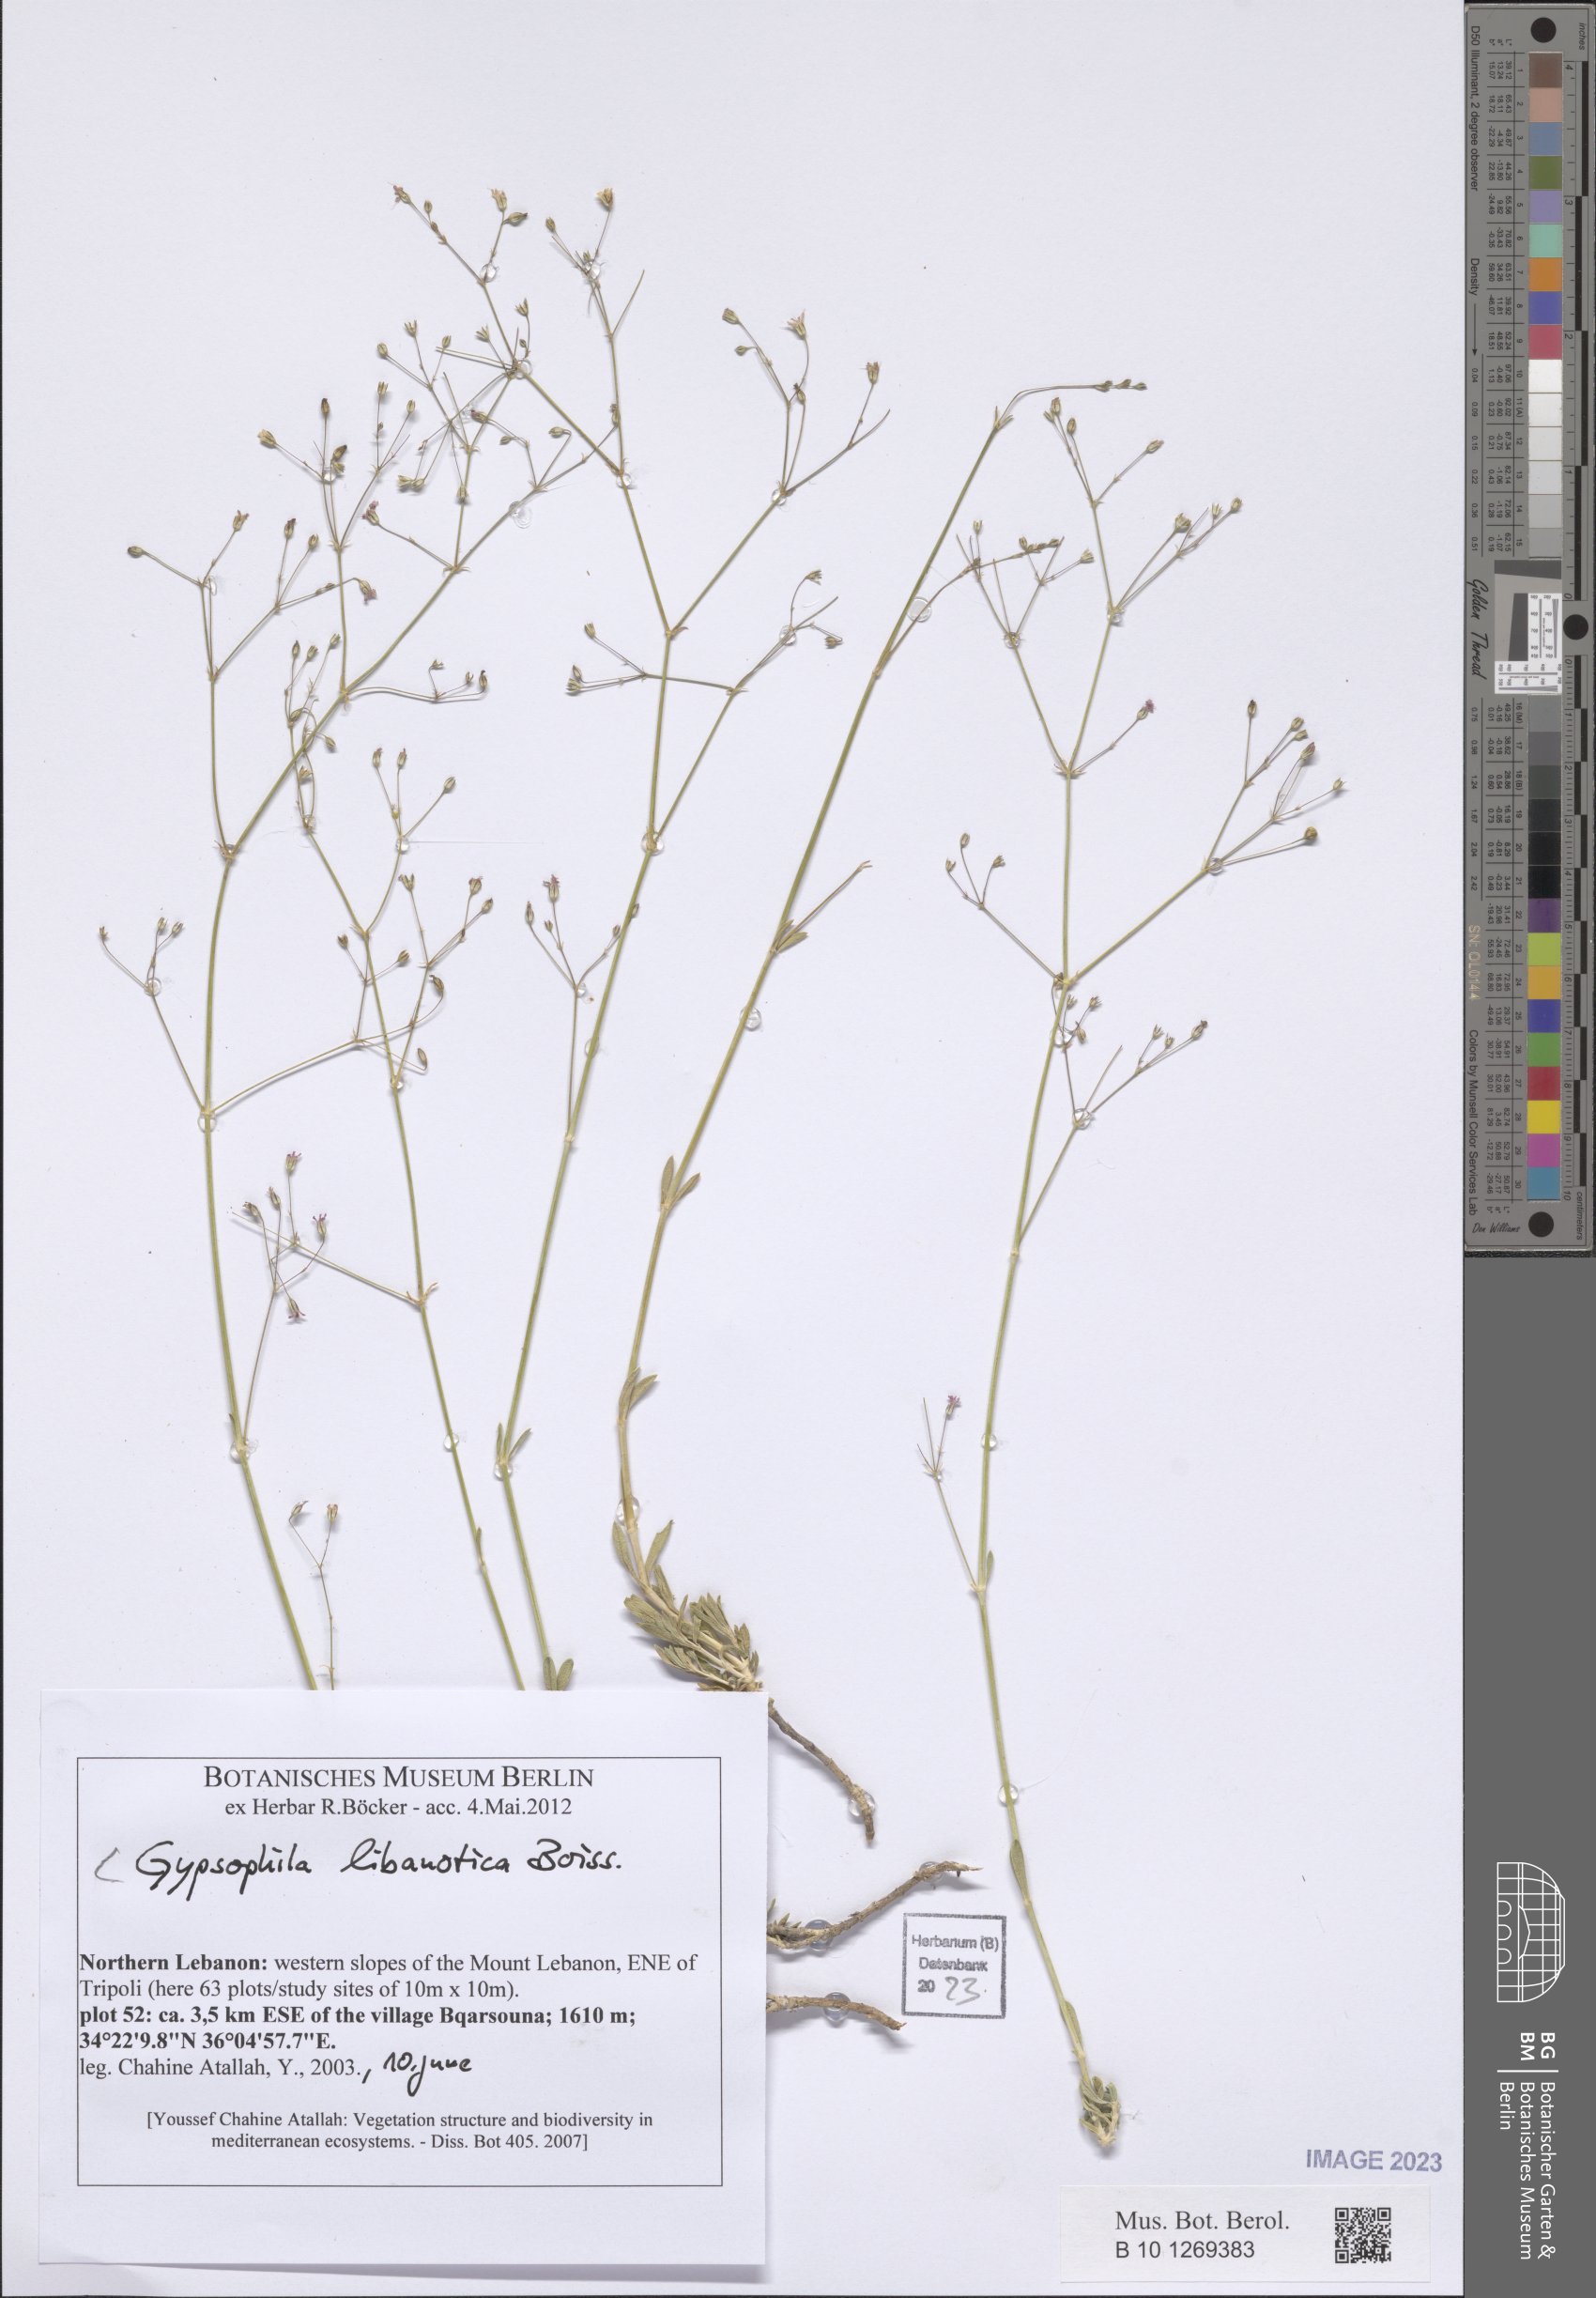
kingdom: Plantae
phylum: Tracheophyta
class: Magnoliopsida
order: Caryophyllales
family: Caryophyllaceae
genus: Gypsophila
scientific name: Gypsophila libanotica
